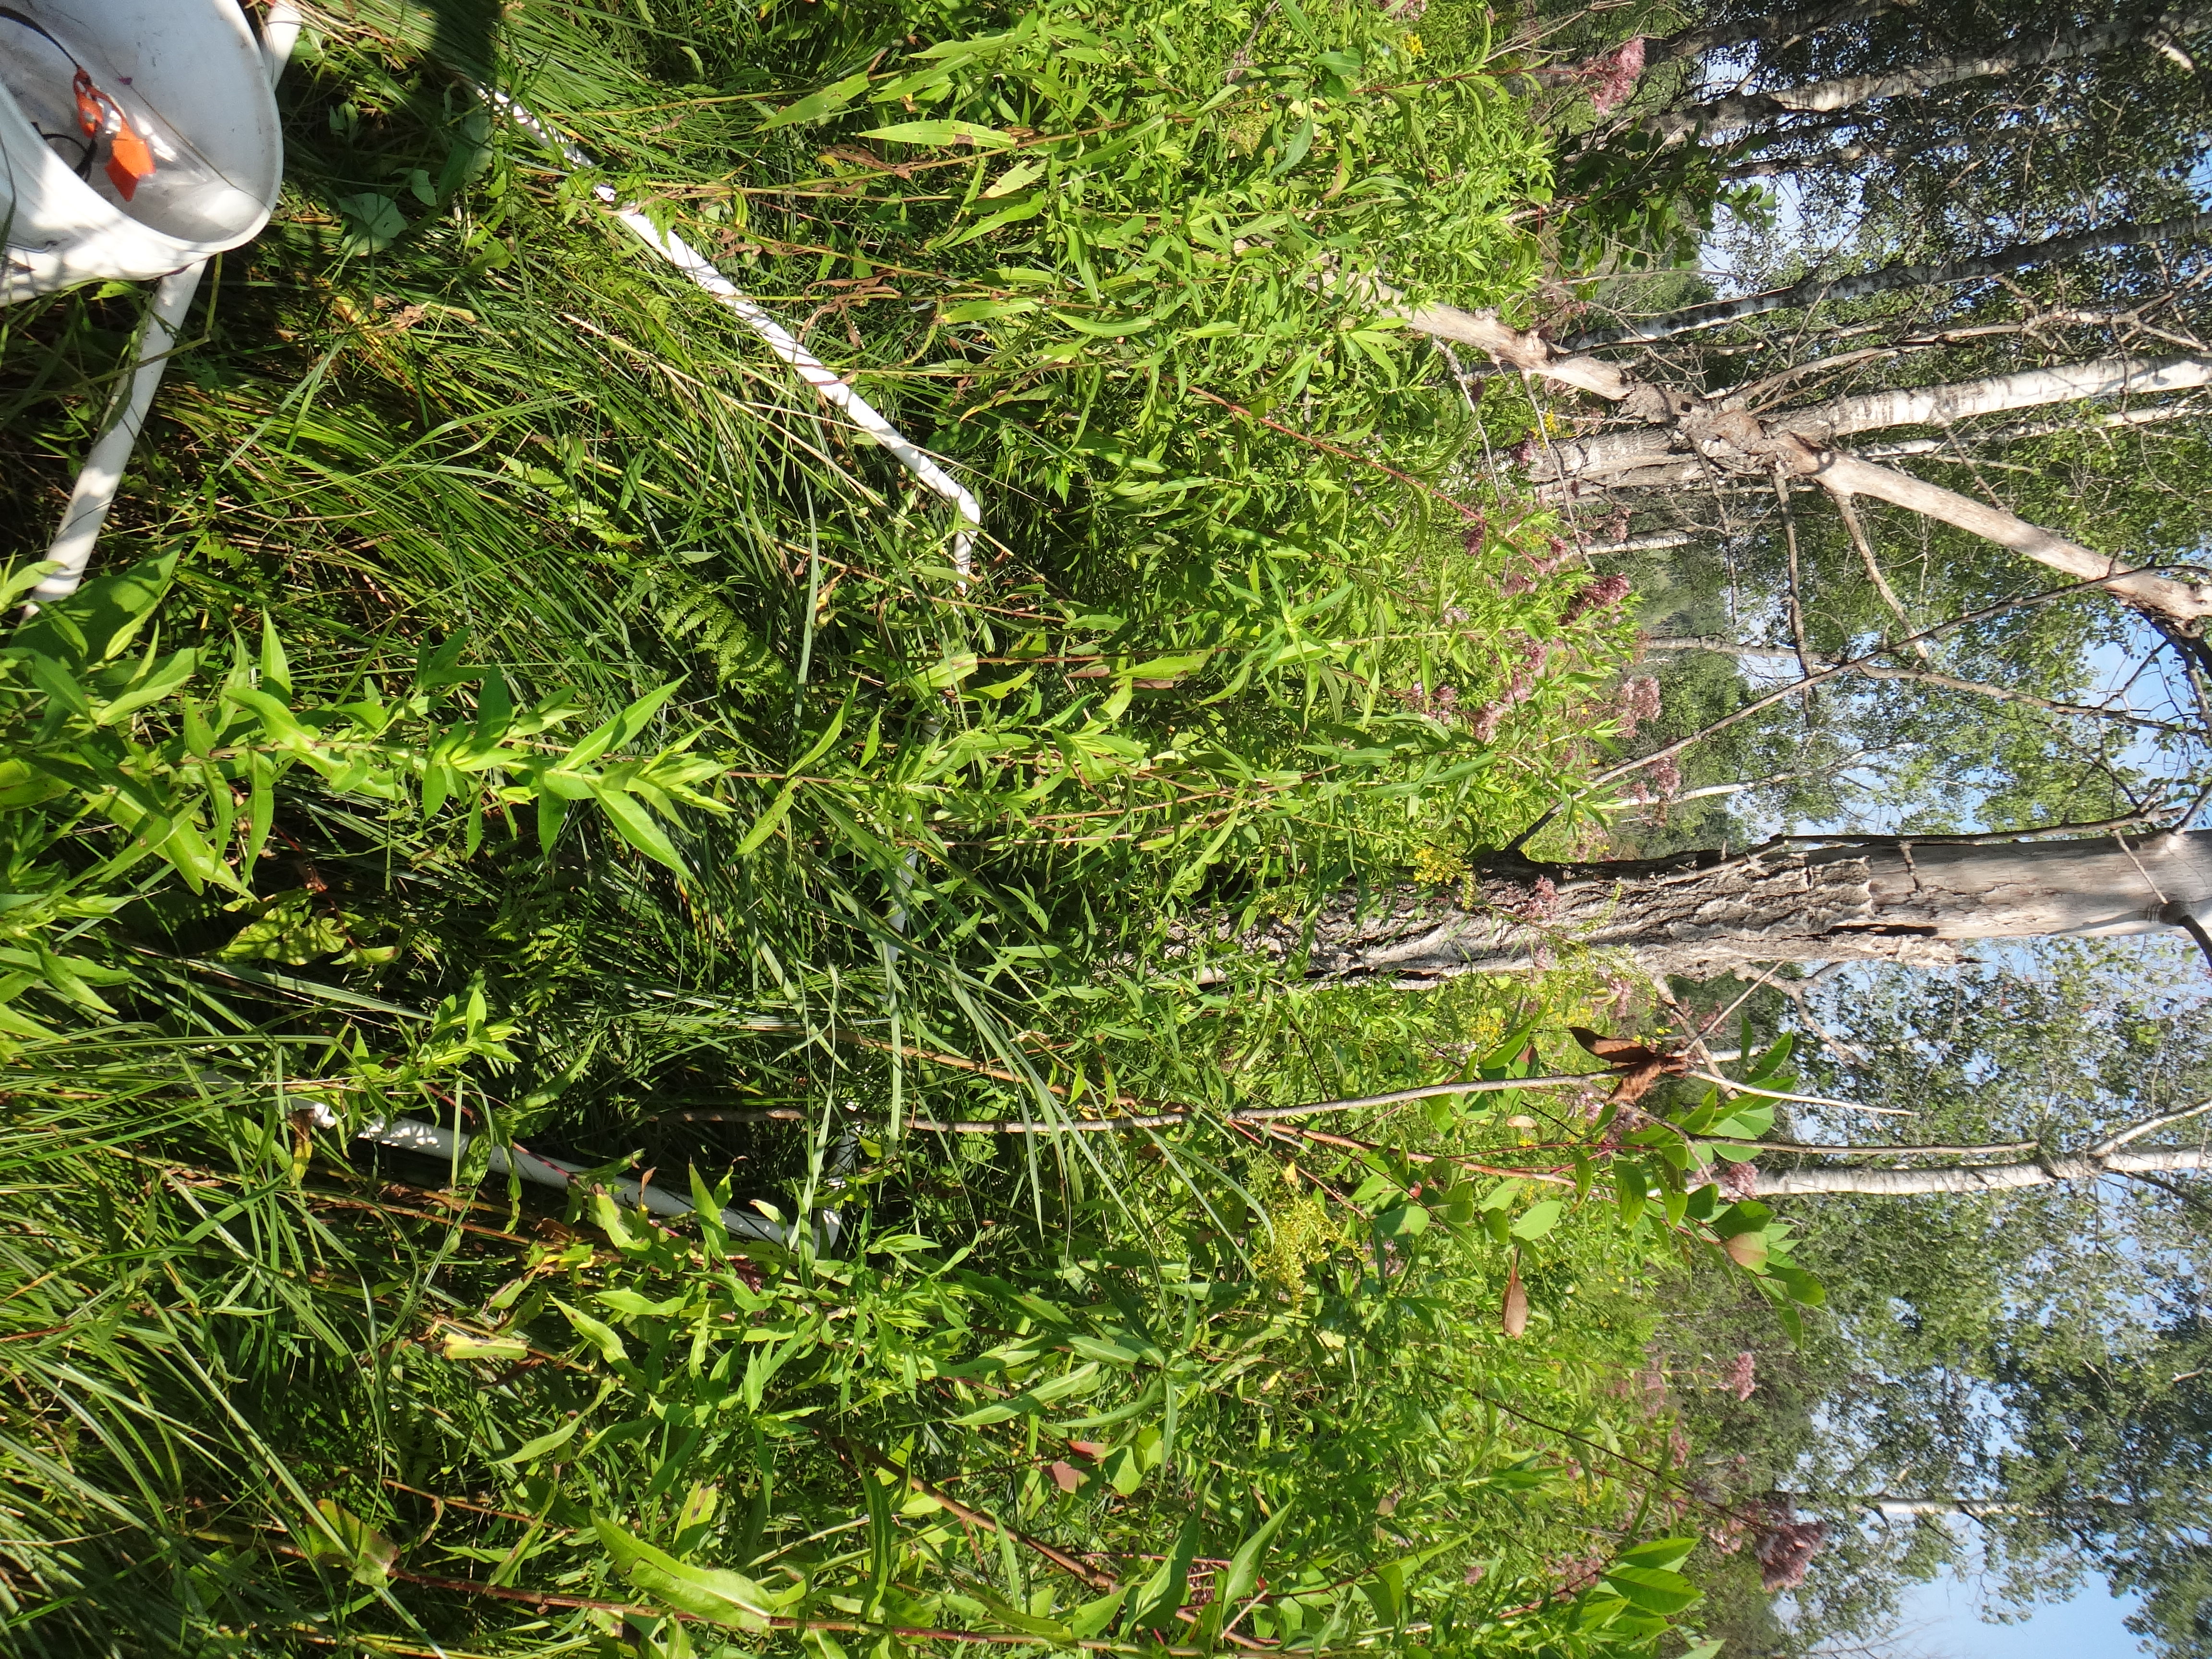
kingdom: Plantae
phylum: Tracheophyta
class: Magnoliopsida
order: Caryophyllales
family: Polygonaceae
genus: Persicaria
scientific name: Persicaria amphibia
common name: Amphibious bistort
